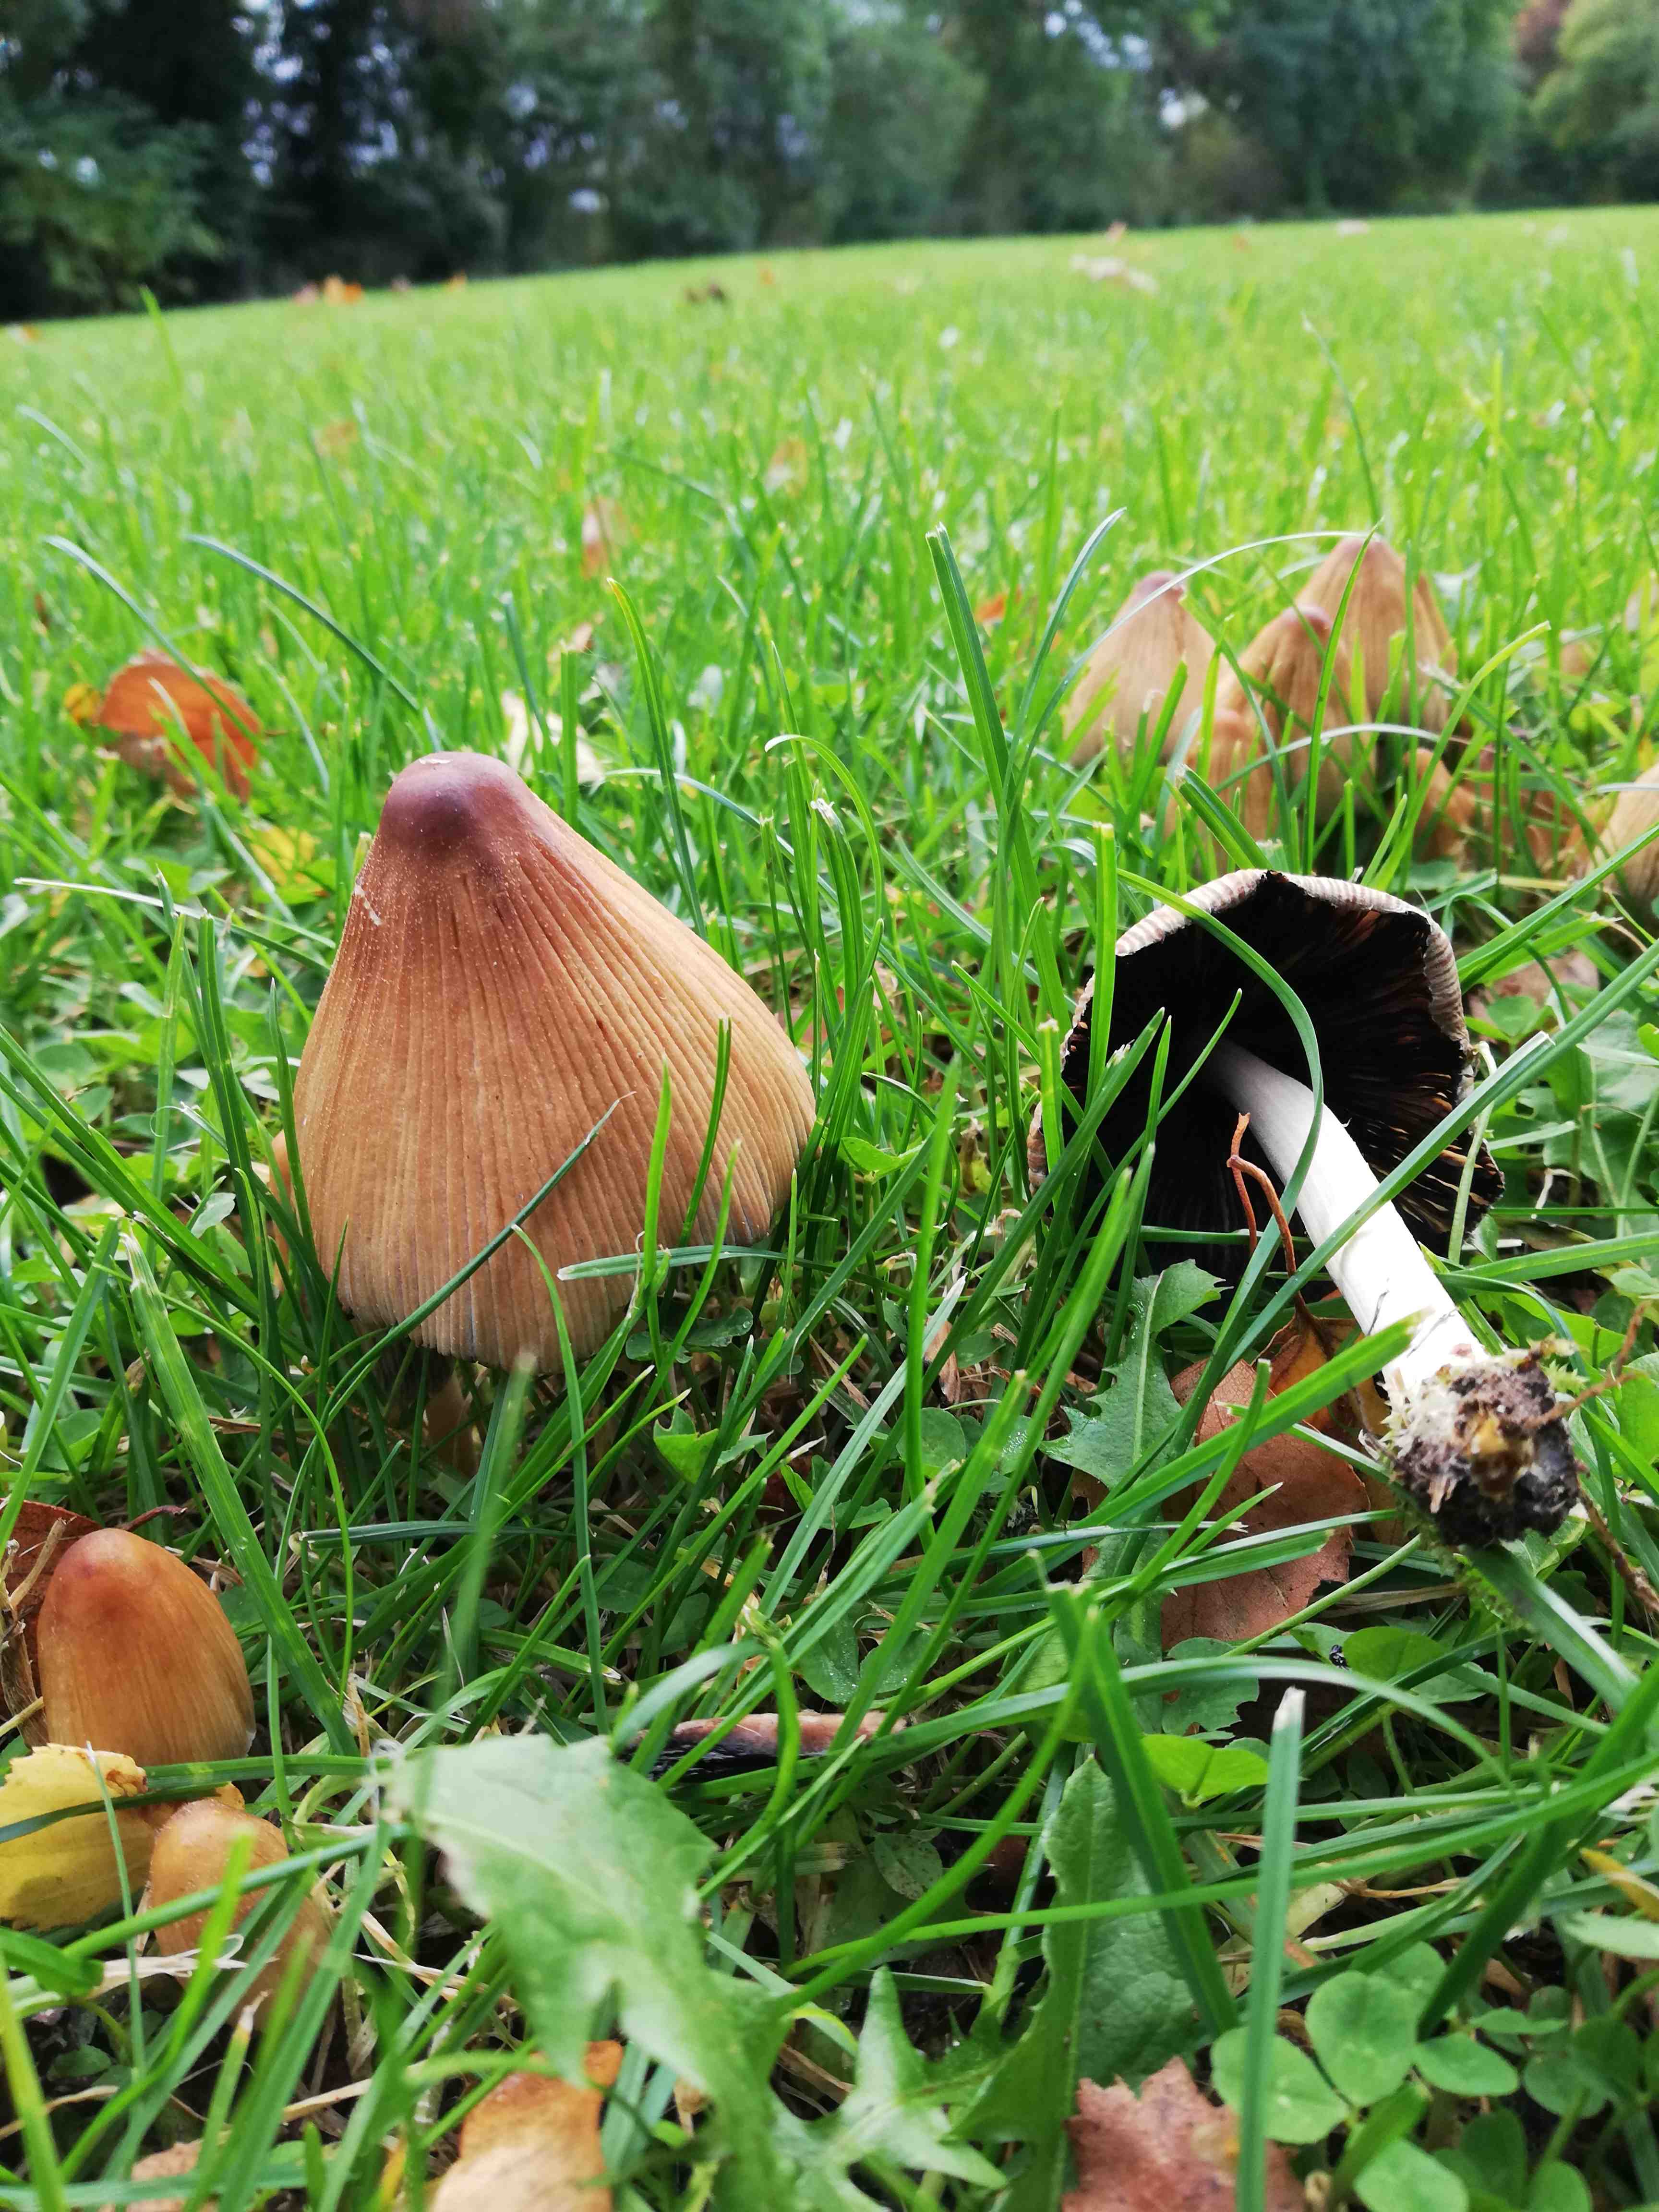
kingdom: Fungi
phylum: Basidiomycota
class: Agaricomycetes
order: Agaricales
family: Psathyrellaceae
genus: Coprinellus
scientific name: Coprinellus micaceus
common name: glimmer-blækhat
